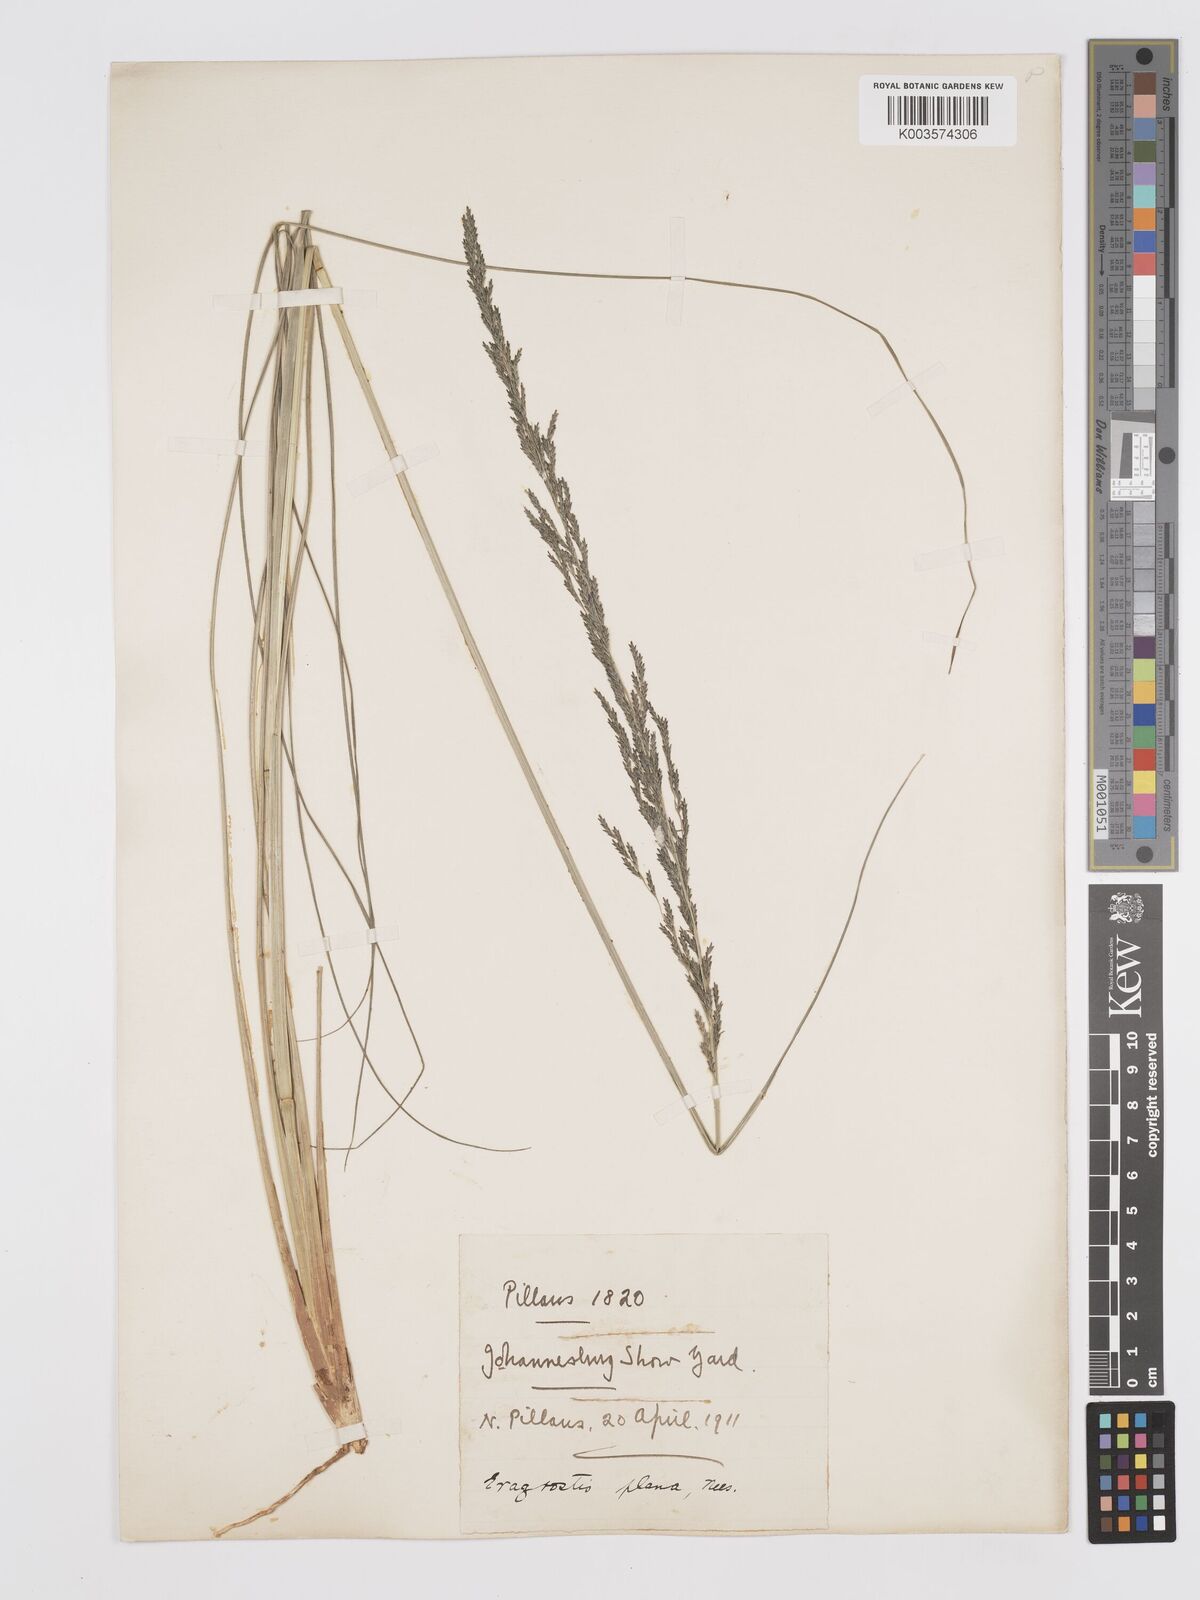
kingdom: Plantae
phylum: Tracheophyta
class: Liliopsida
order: Poales
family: Poaceae
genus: Eragrostis
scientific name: Eragrostis plana
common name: South african lovegrass
